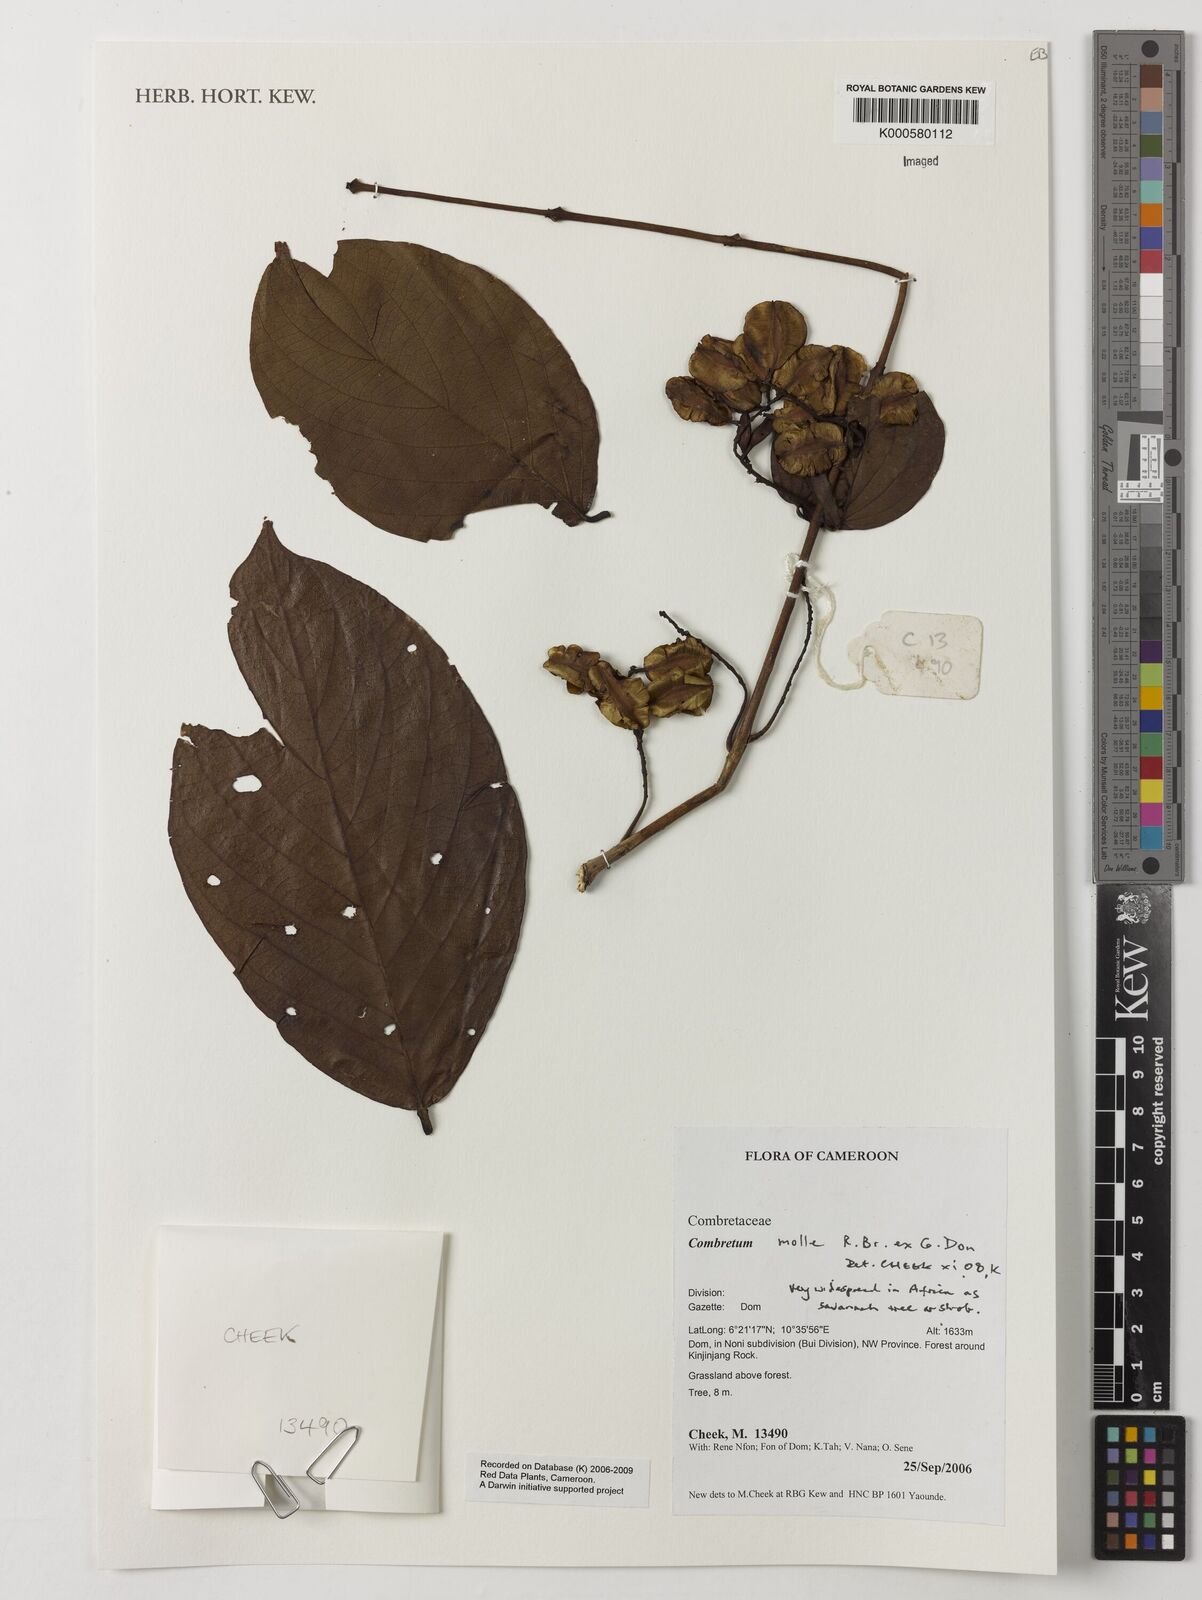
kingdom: Plantae
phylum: Tracheophyta
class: Magnoliopsida
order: Myrtales
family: Combretaceae
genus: Combretum
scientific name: Combretum molle
